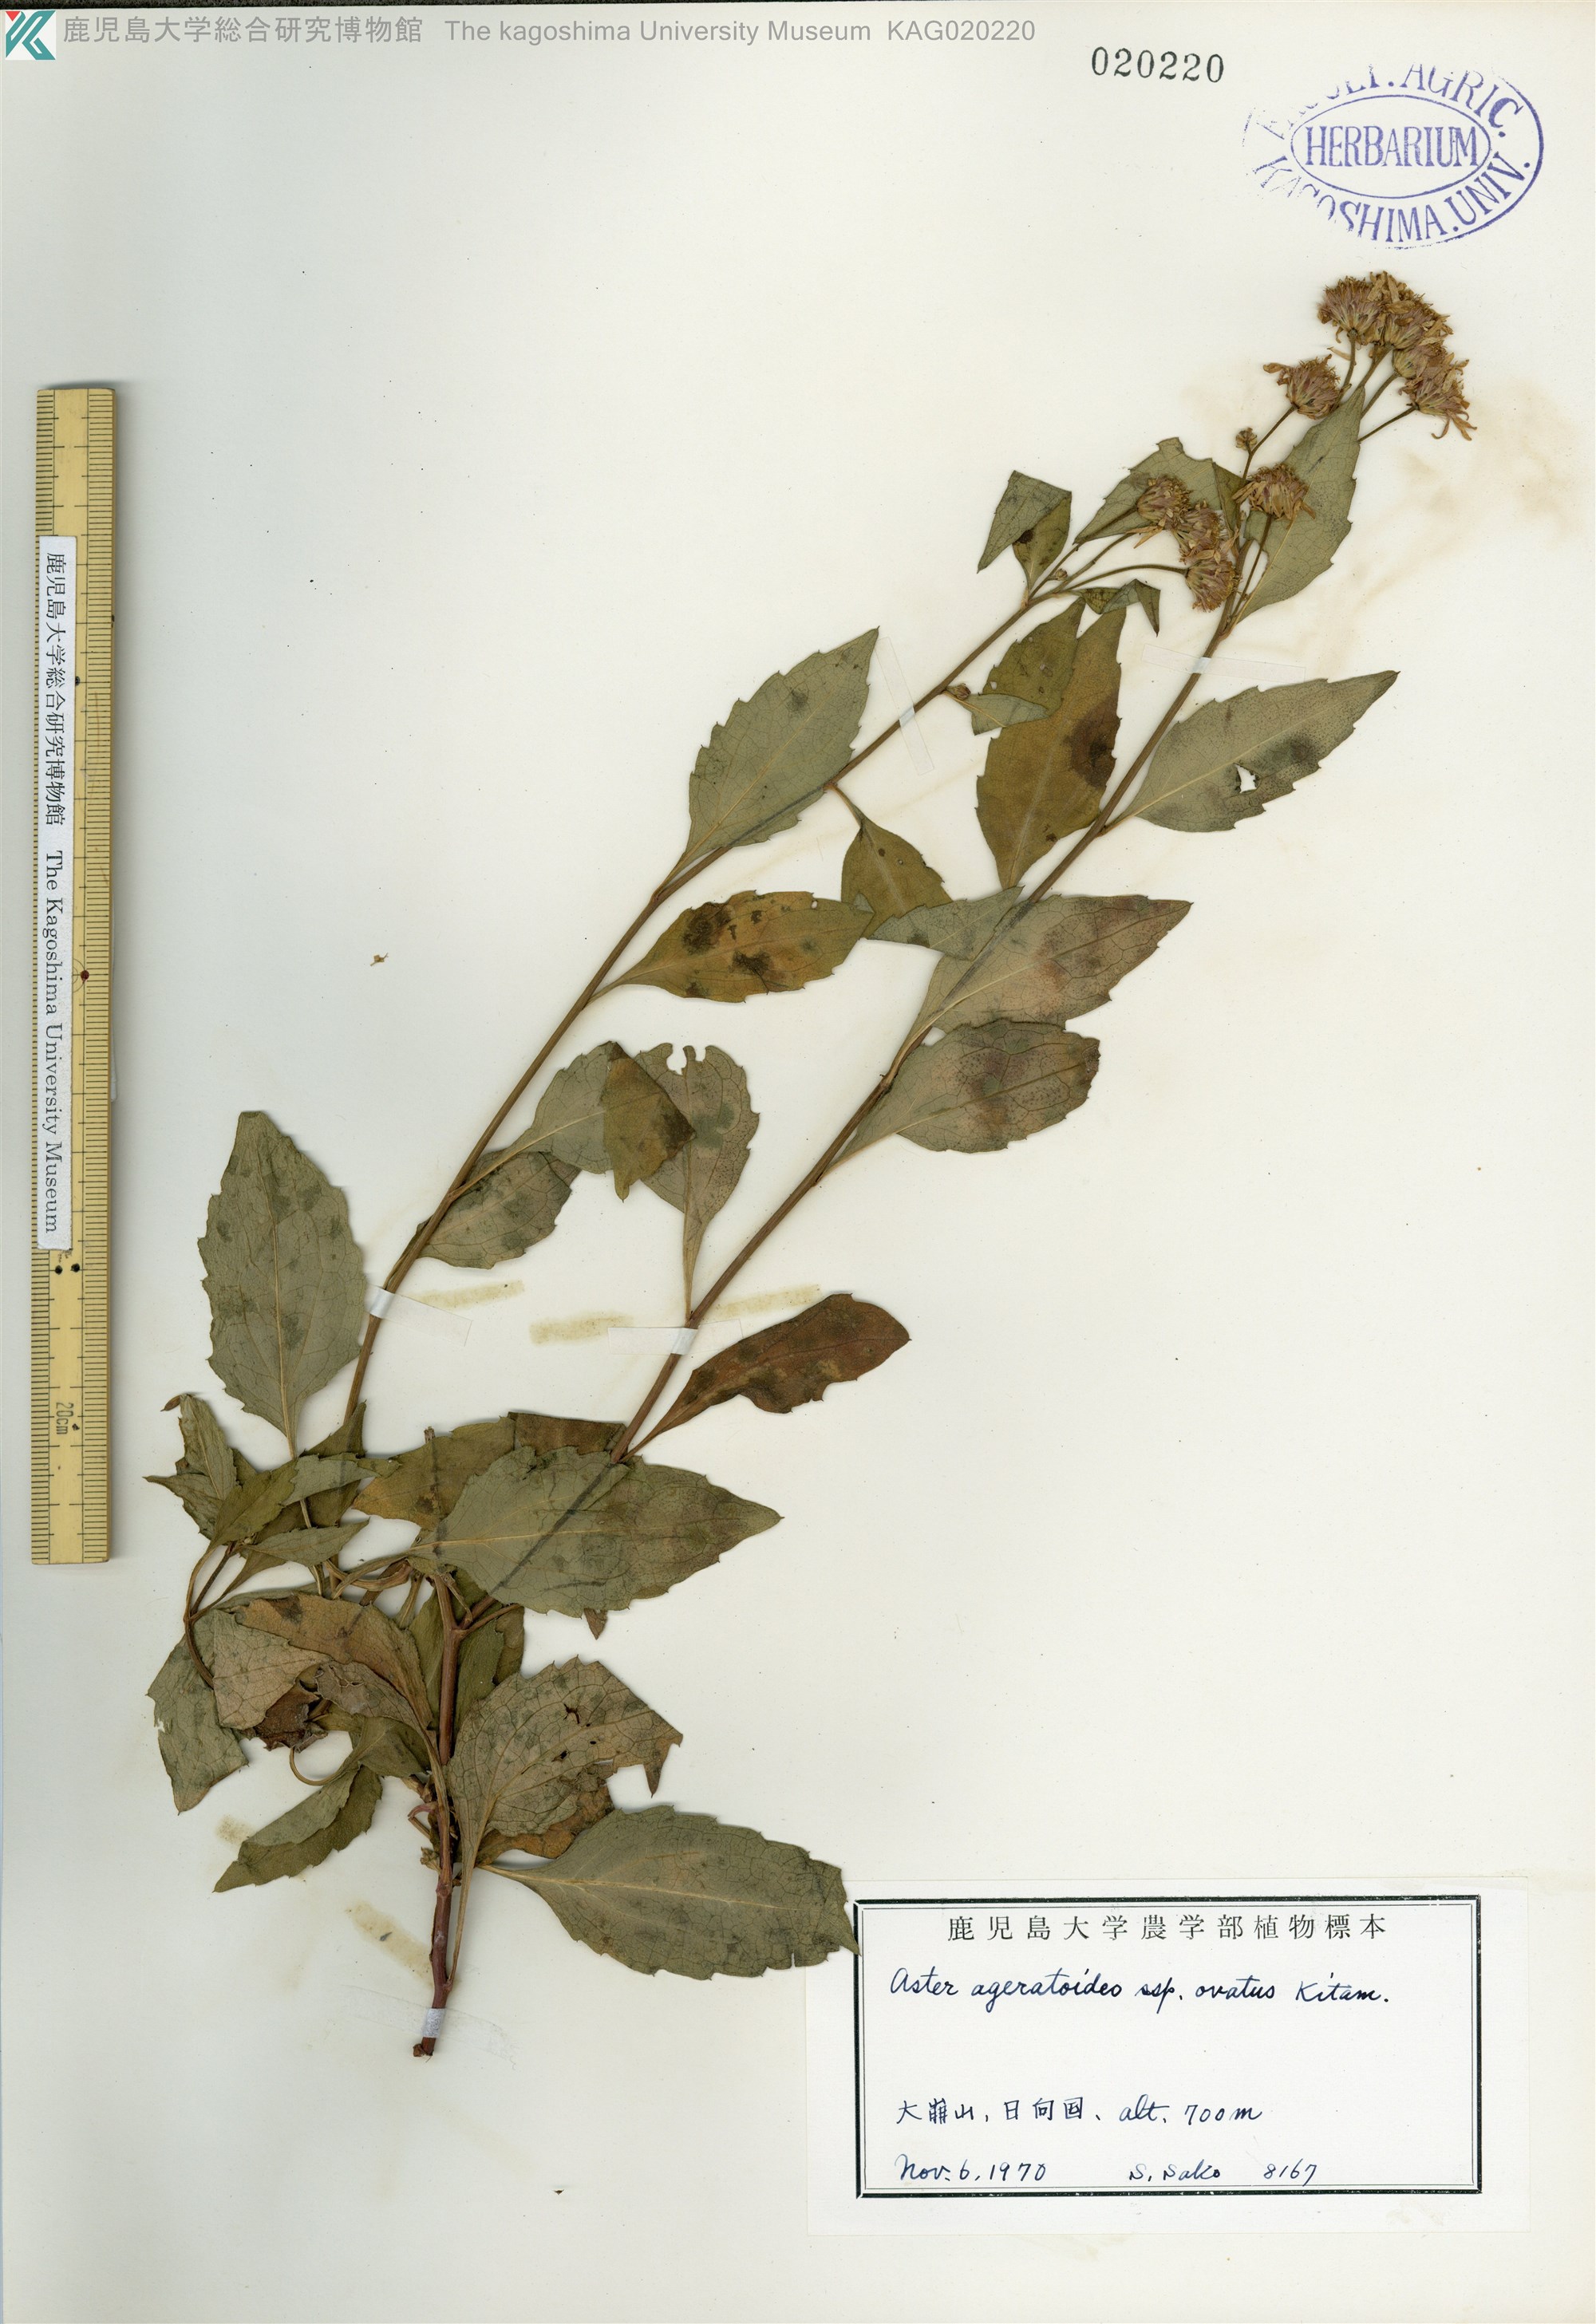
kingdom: Plantae
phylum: Tracheophyta
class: Magnoliopsida
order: Asterales
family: Asteraceae
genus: Aster
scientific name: Aster microcephalus
